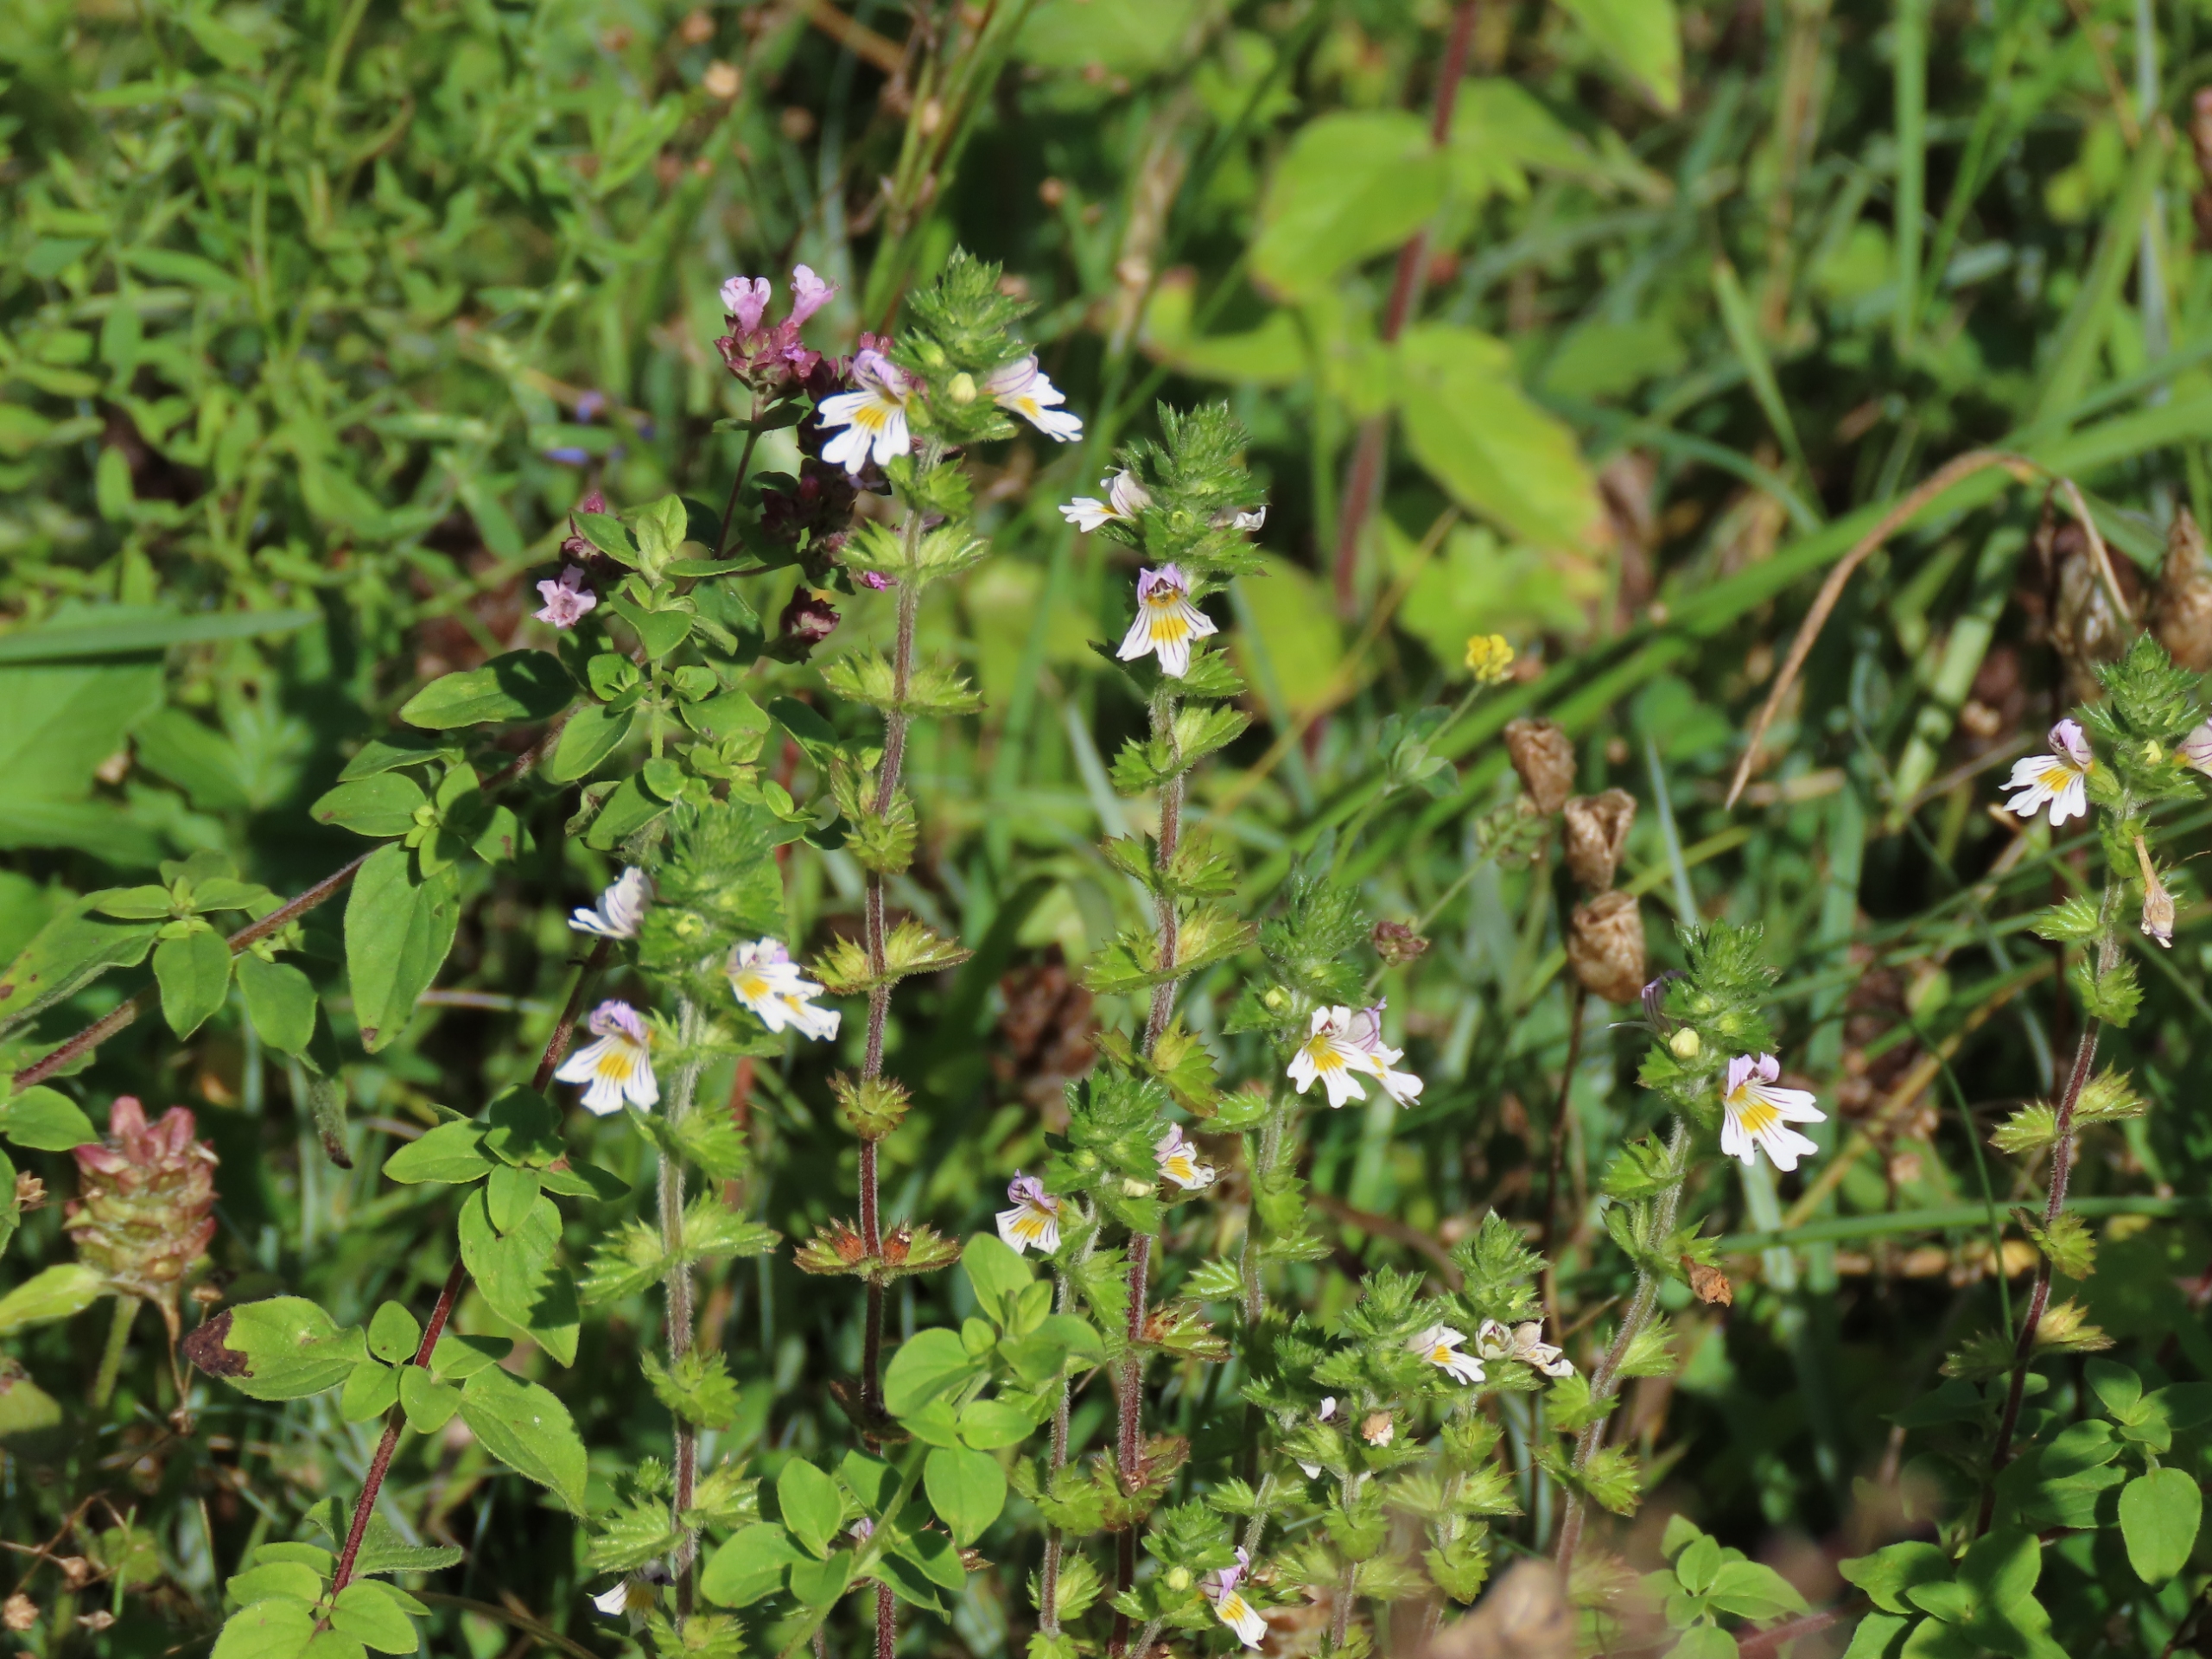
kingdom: Plantae
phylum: Tracheophyta
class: Magnoliopsida
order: Lamiales
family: Orobanchaceae
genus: Euphrasia
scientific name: Euphrasia officinalis
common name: Kalk-øjentrøst
